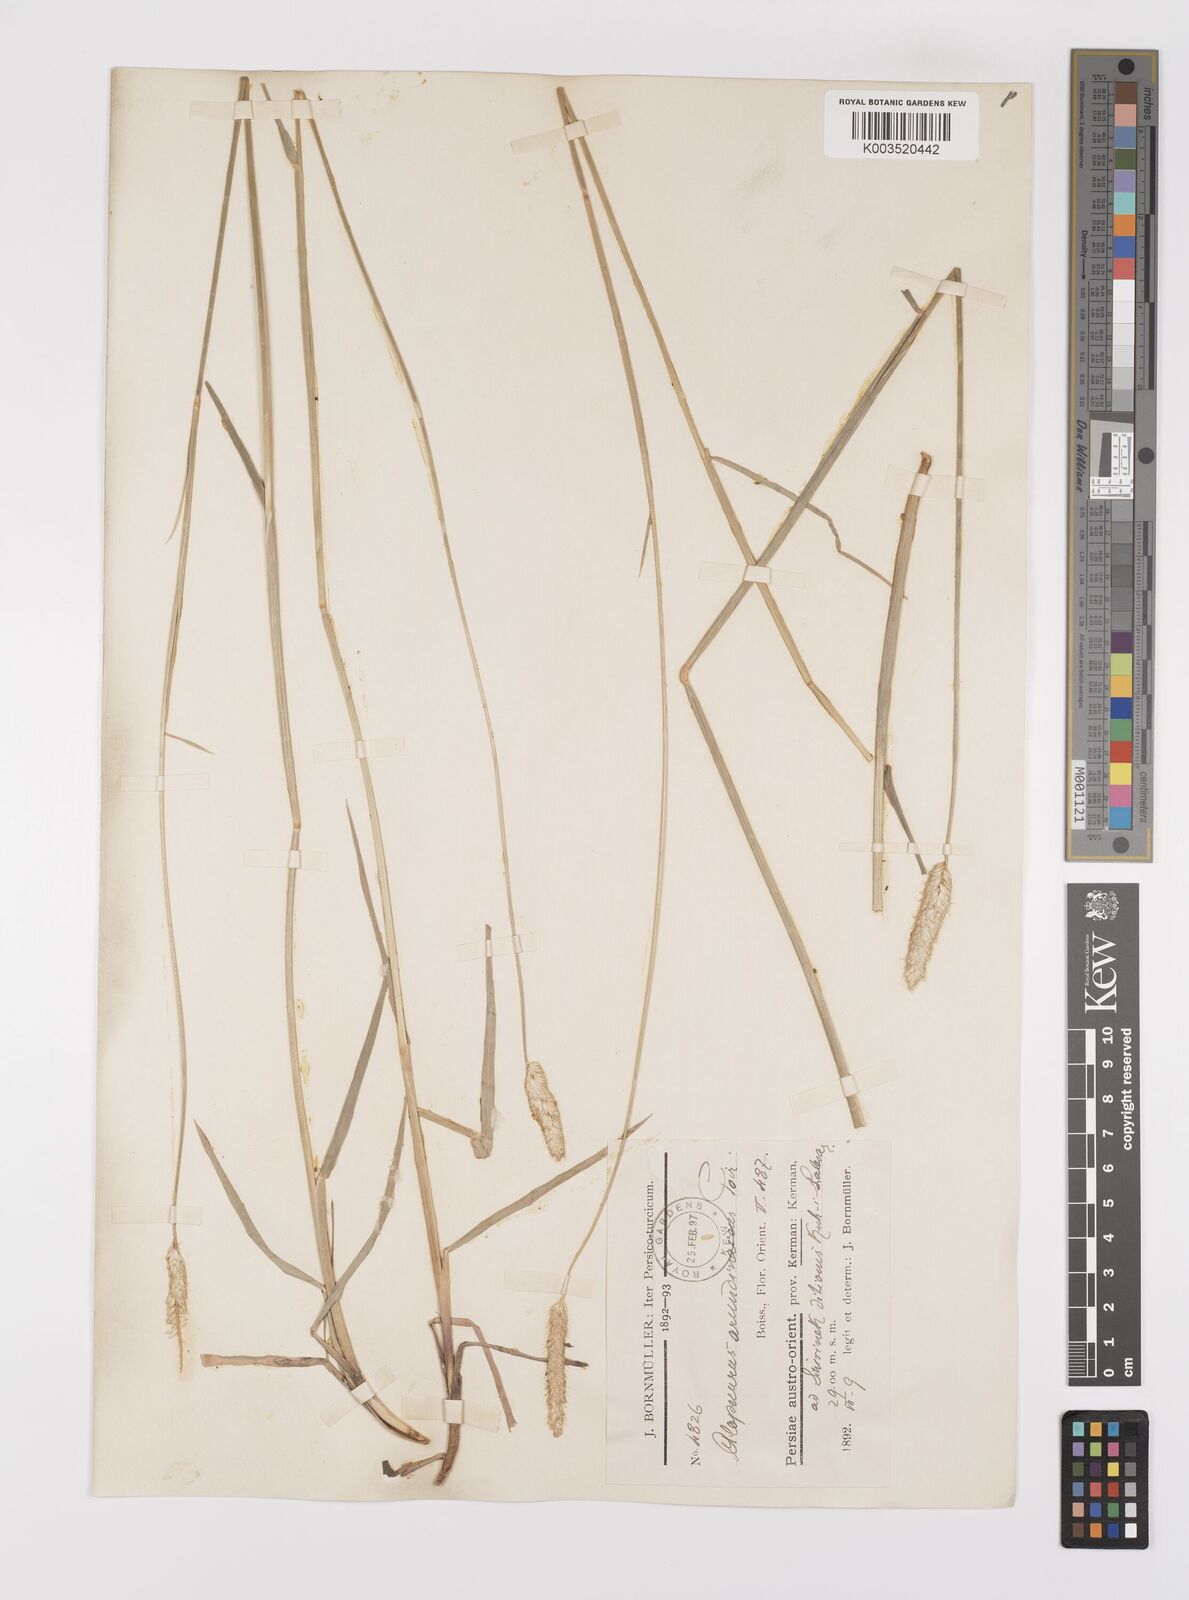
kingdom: Plantae
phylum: Tracheophyta
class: Liliopsida
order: Poales
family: Poaceae
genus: Alopecurus
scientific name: Alopecurus arundinaceus
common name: Creeping meadow foxtail
